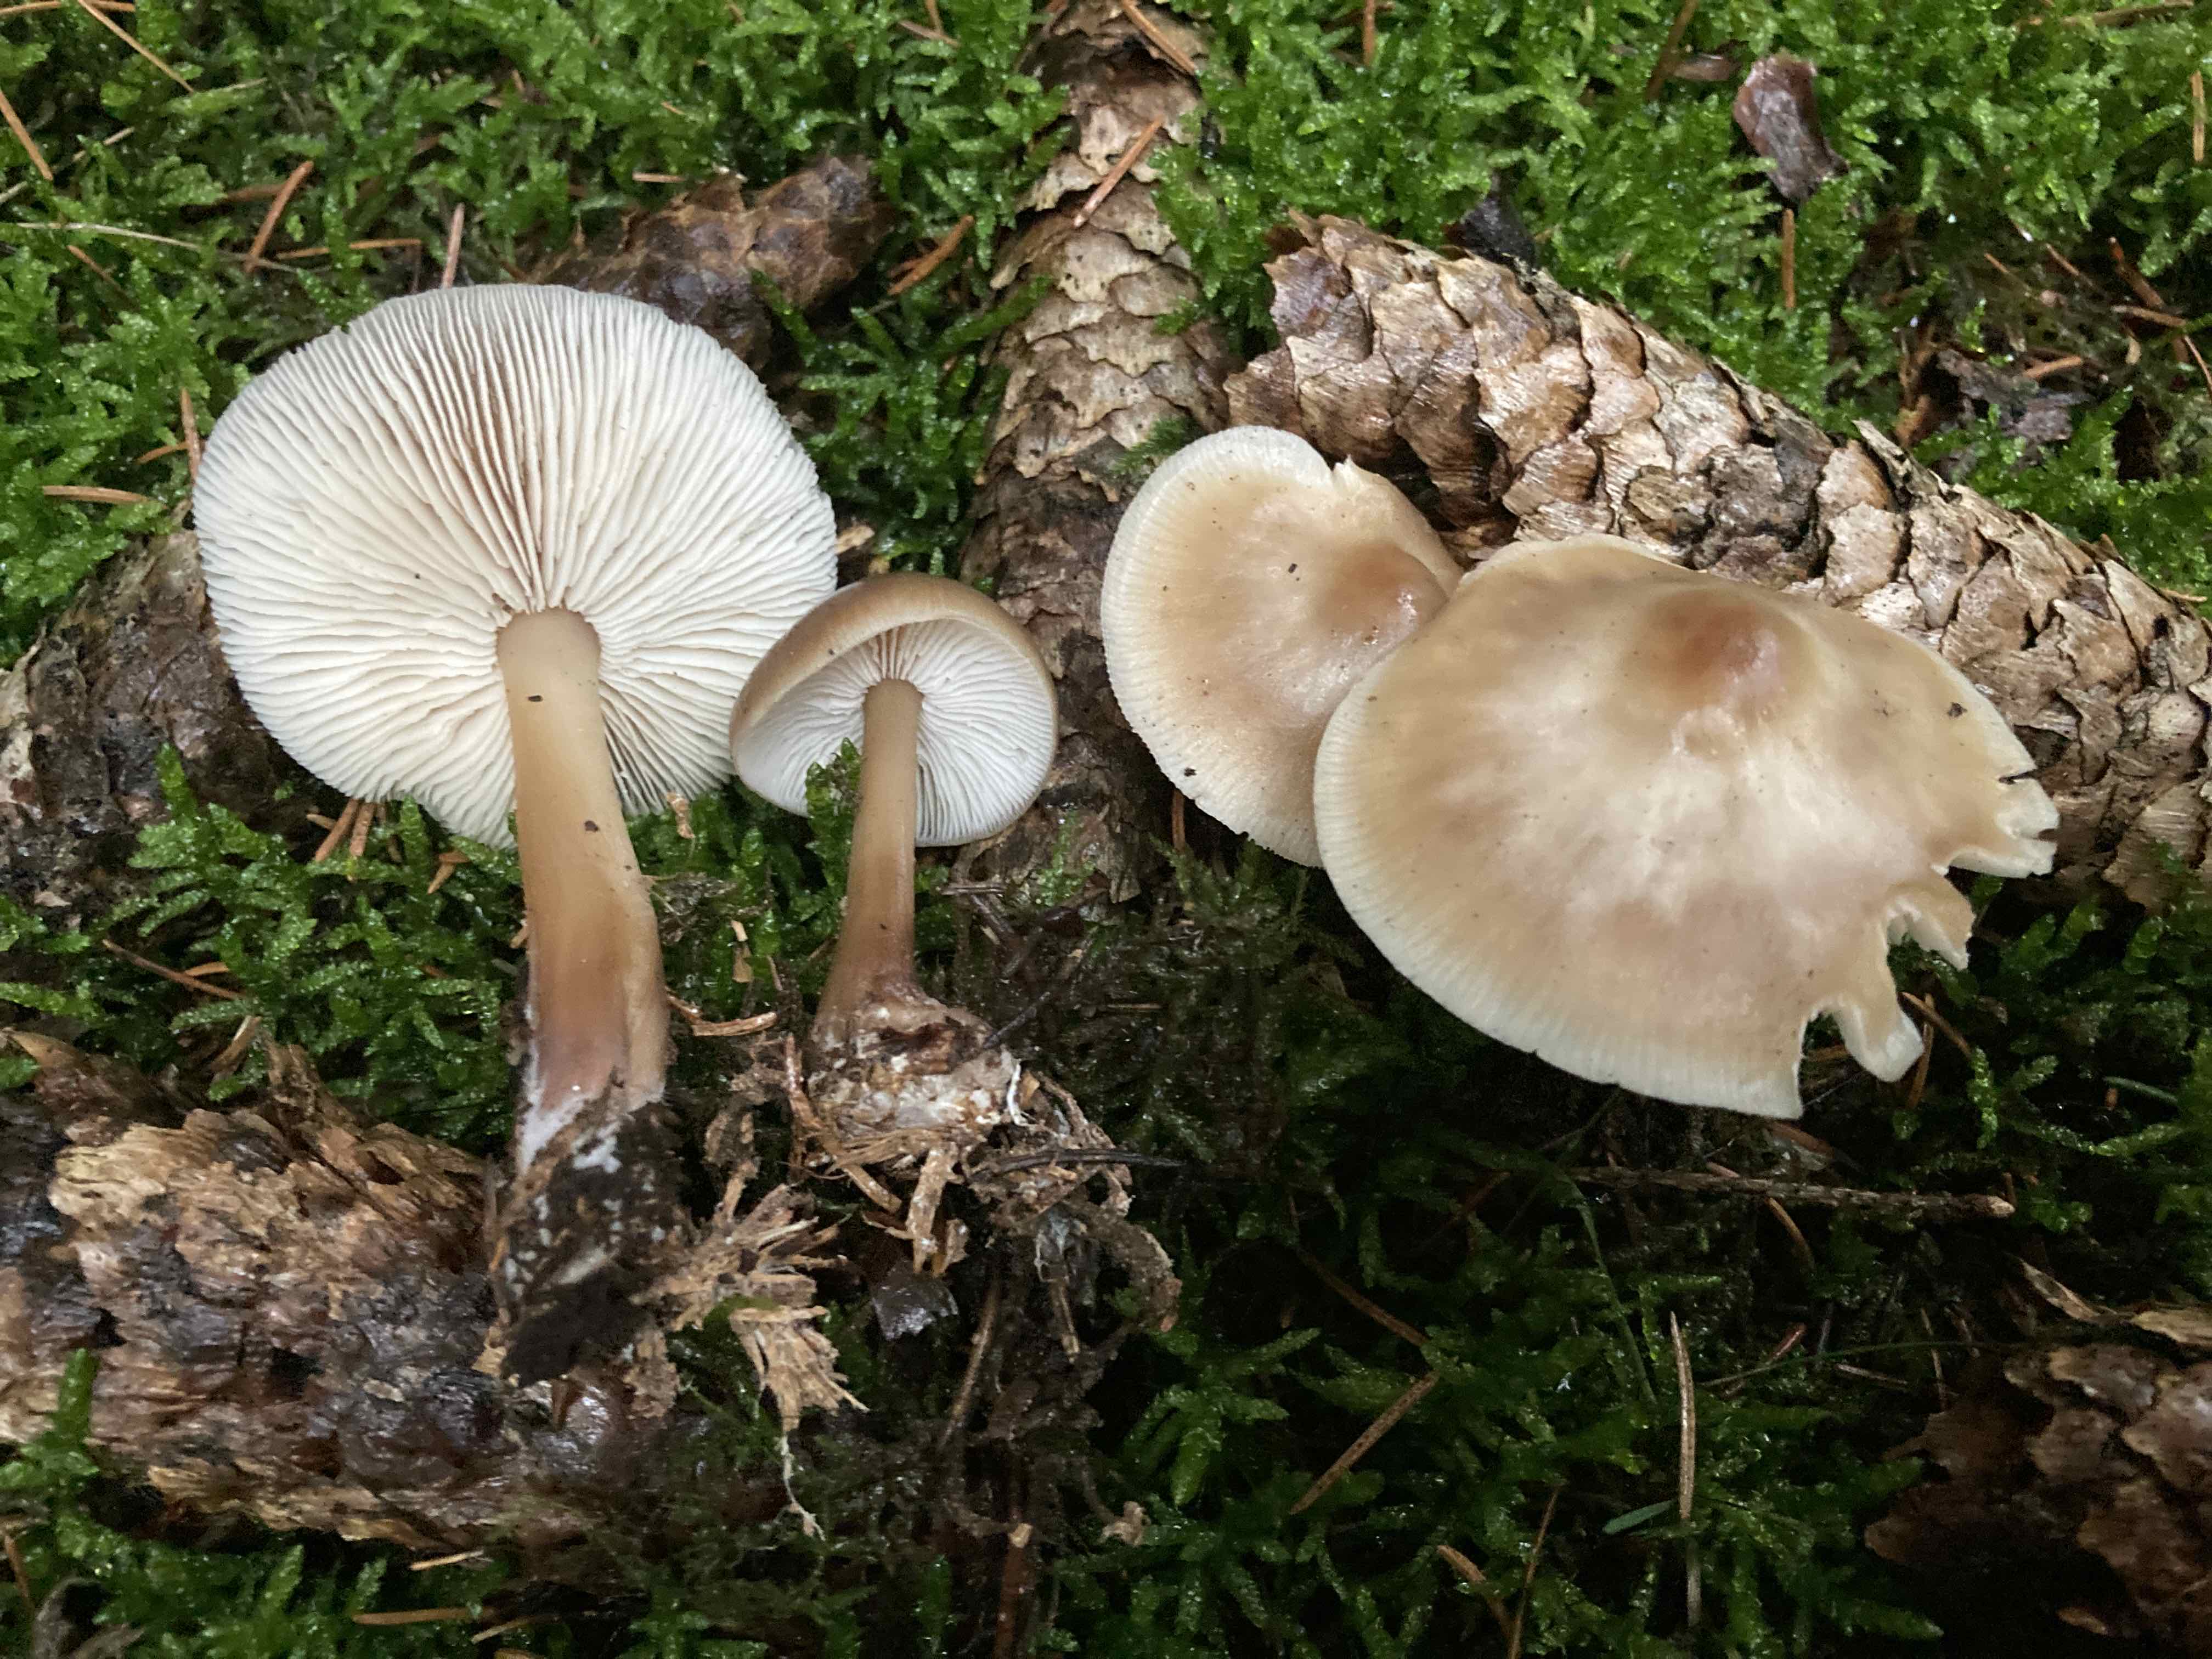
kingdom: Fungi
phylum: Basidiomycota
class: Agaricomycetes
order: Agaricales
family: Omphalotaceae
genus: Rhodocollybia
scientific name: Rhodocollybia asema
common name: horngrå fladhat
